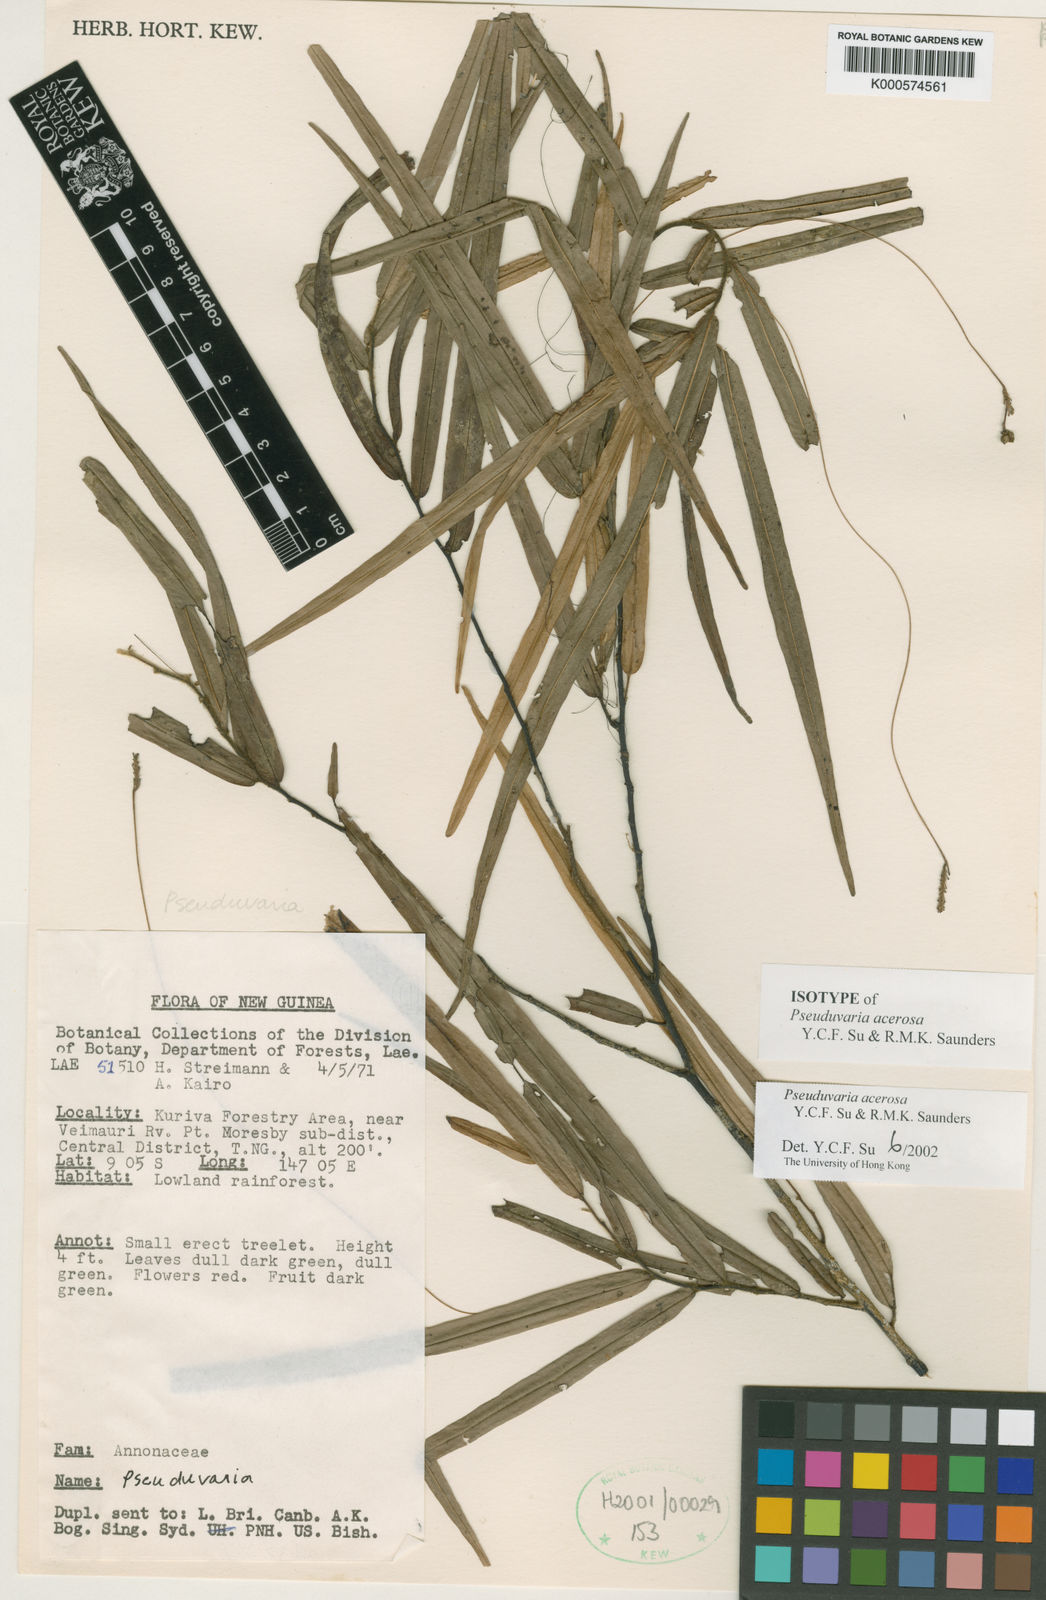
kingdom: Plantae
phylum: Tracheophyta
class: Magnoliopsida
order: Magnoliales
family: Annonaceae
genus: Pseuduvaria
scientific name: Pseuduvaria acerosa
